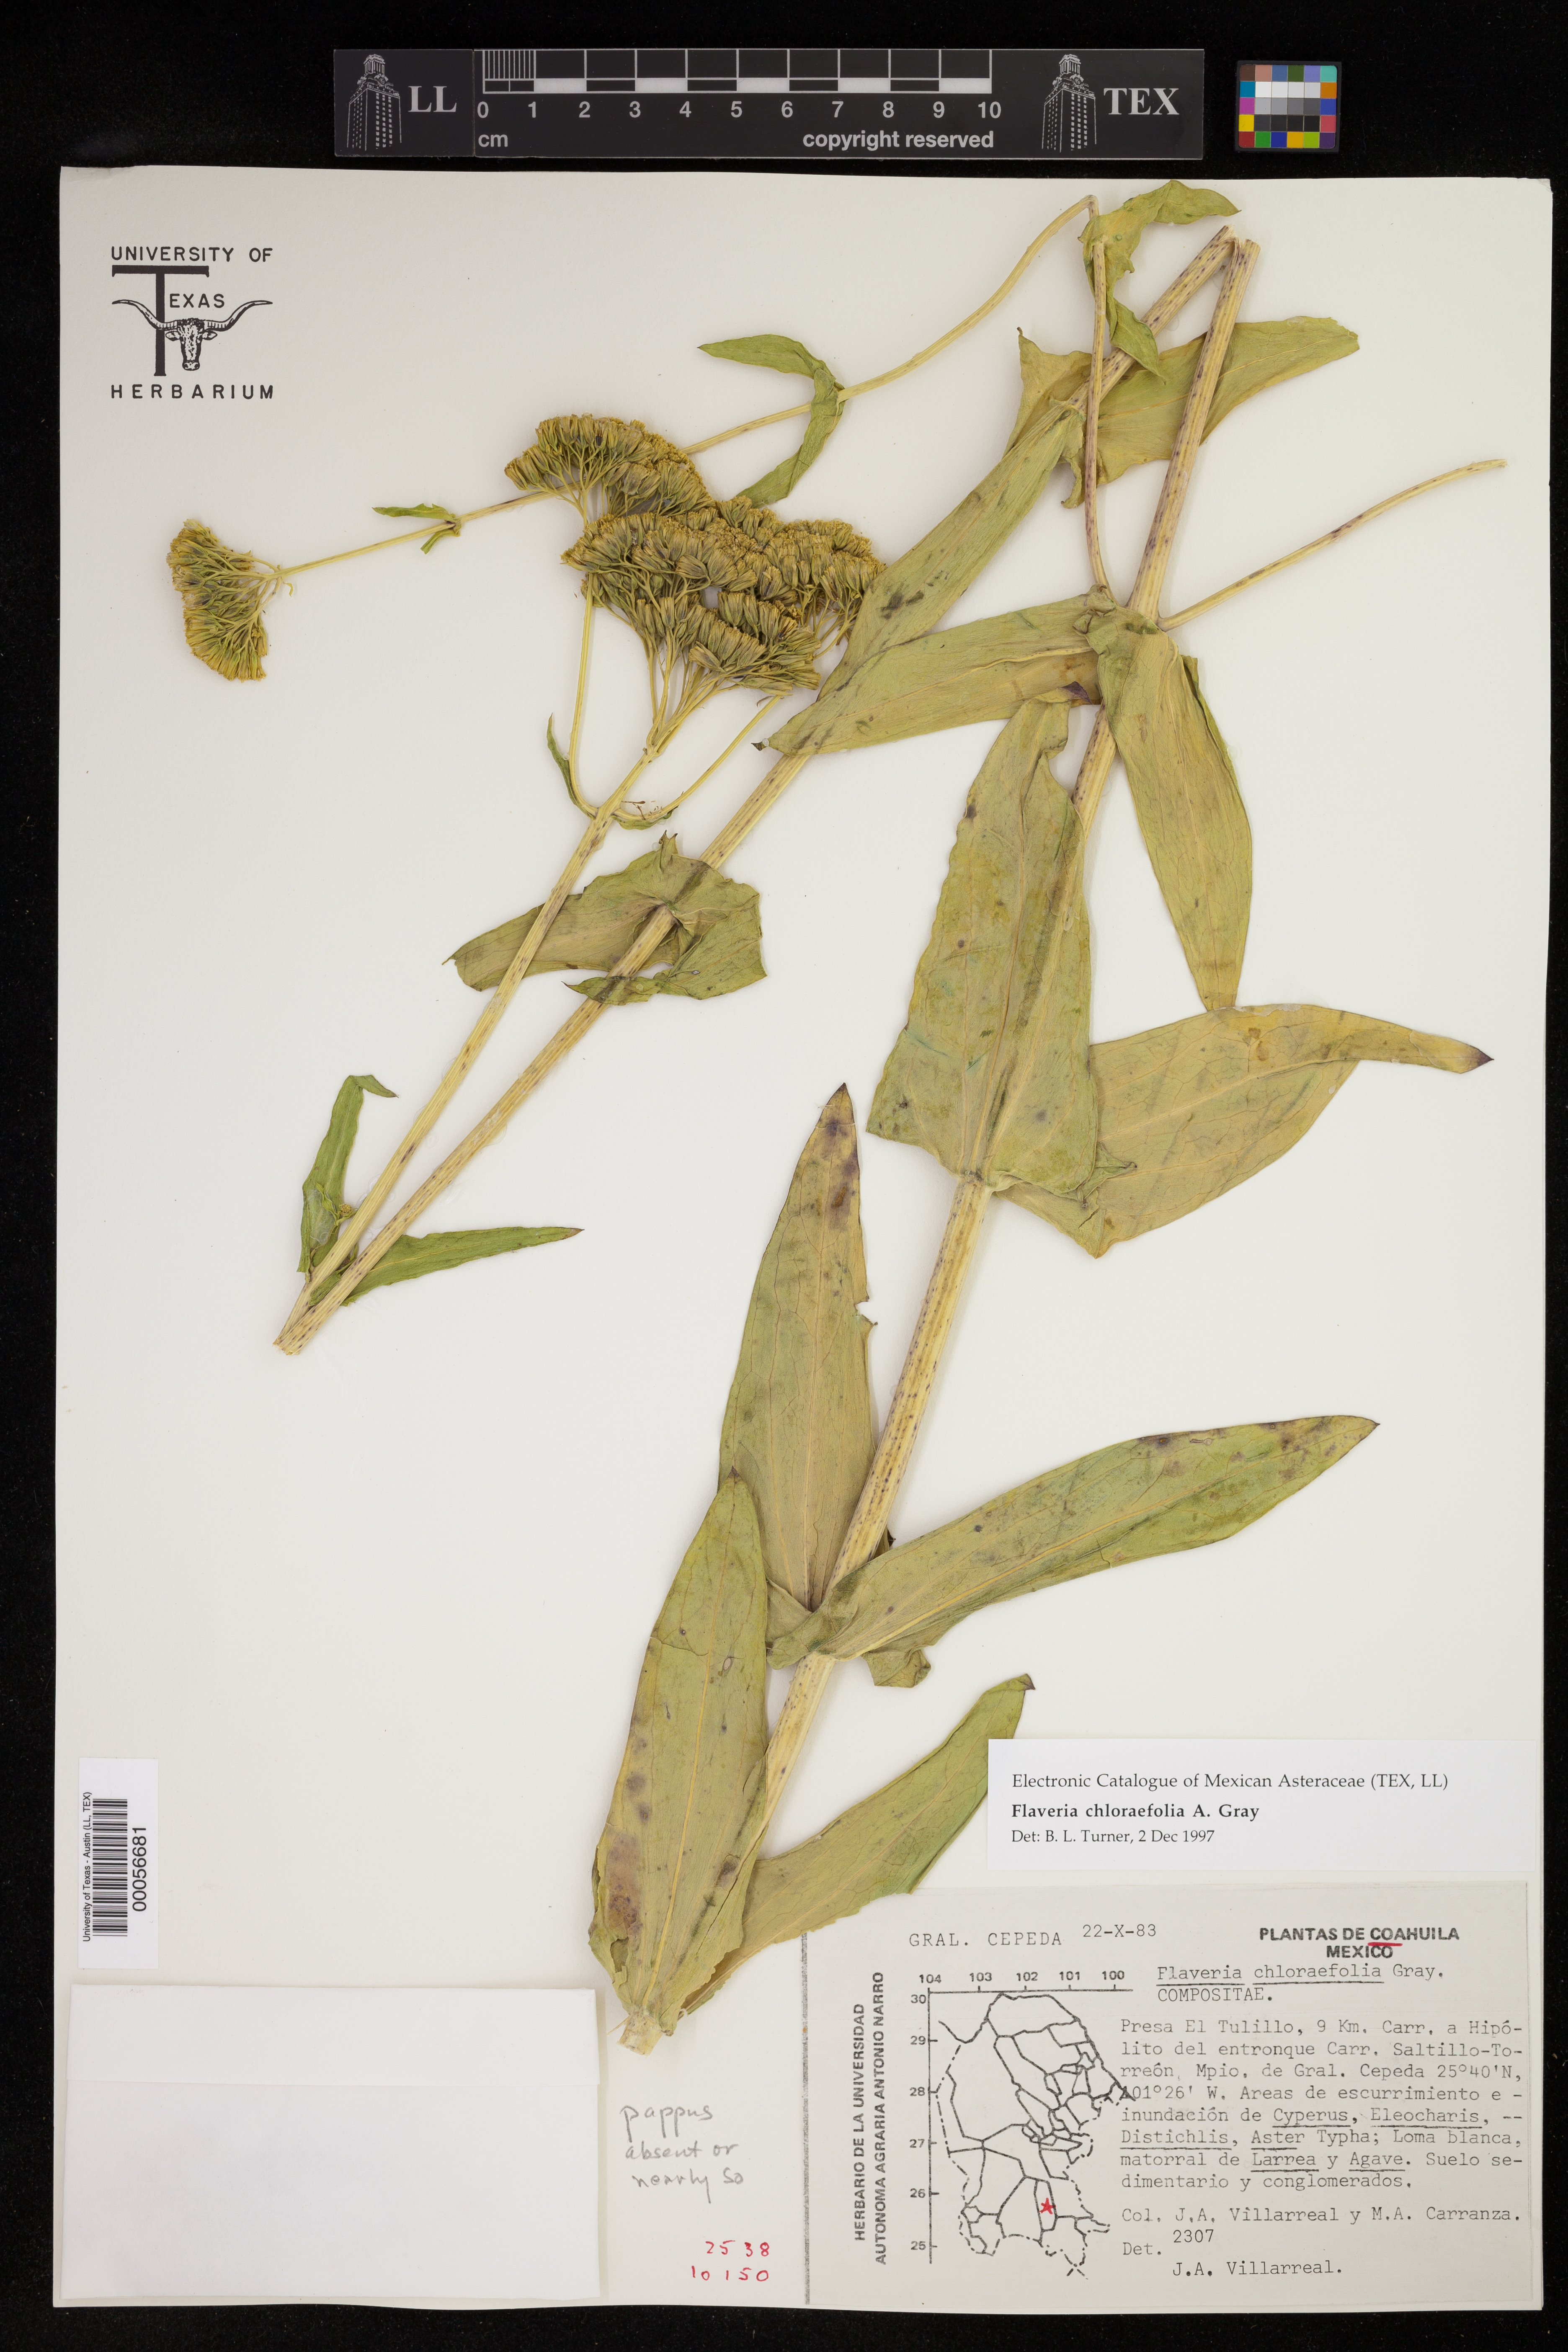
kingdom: Plantae
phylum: Tracheophyta
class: Magnoliopsida
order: Asterales
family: Asteraceae
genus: Flaveria
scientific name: Flaveria chlorifolia
